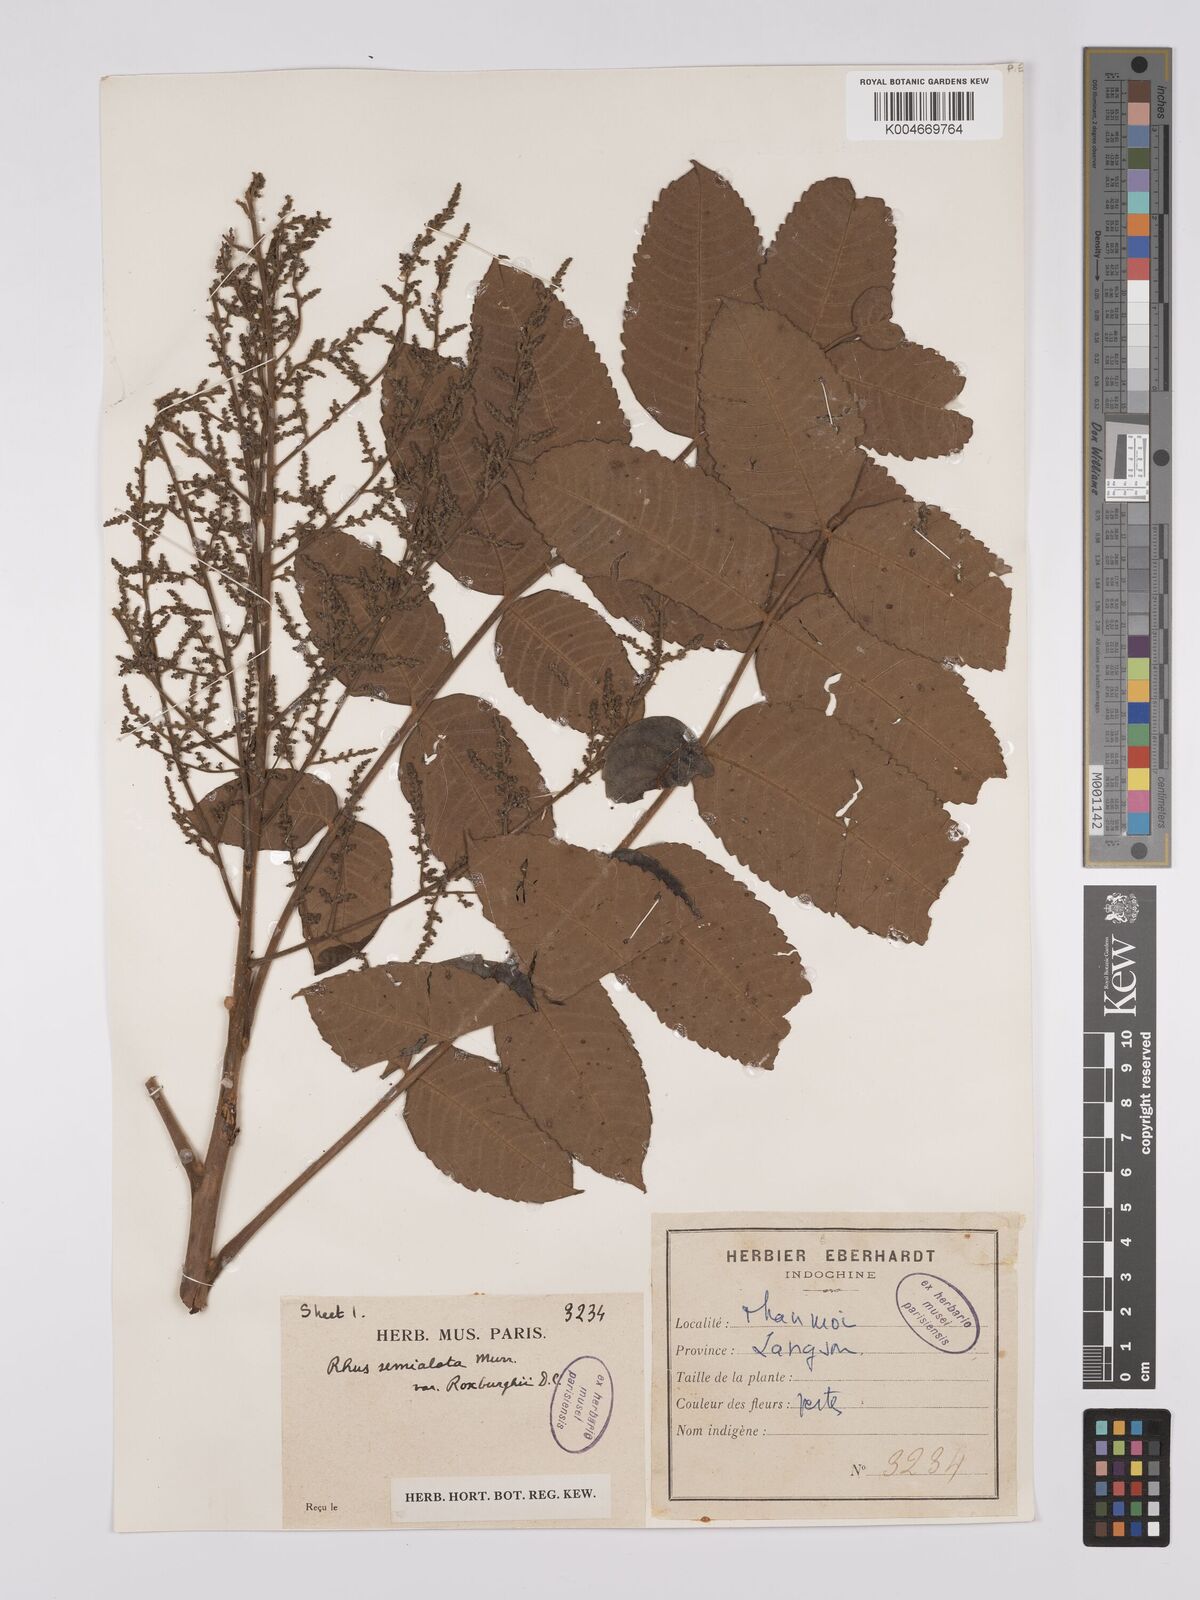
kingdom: Plantae
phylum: Tracheophyta
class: Magnoliopsida
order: Sapindales
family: Anacardiaceae
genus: Rhus
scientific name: Rhus chinensis
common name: Chinese gall
